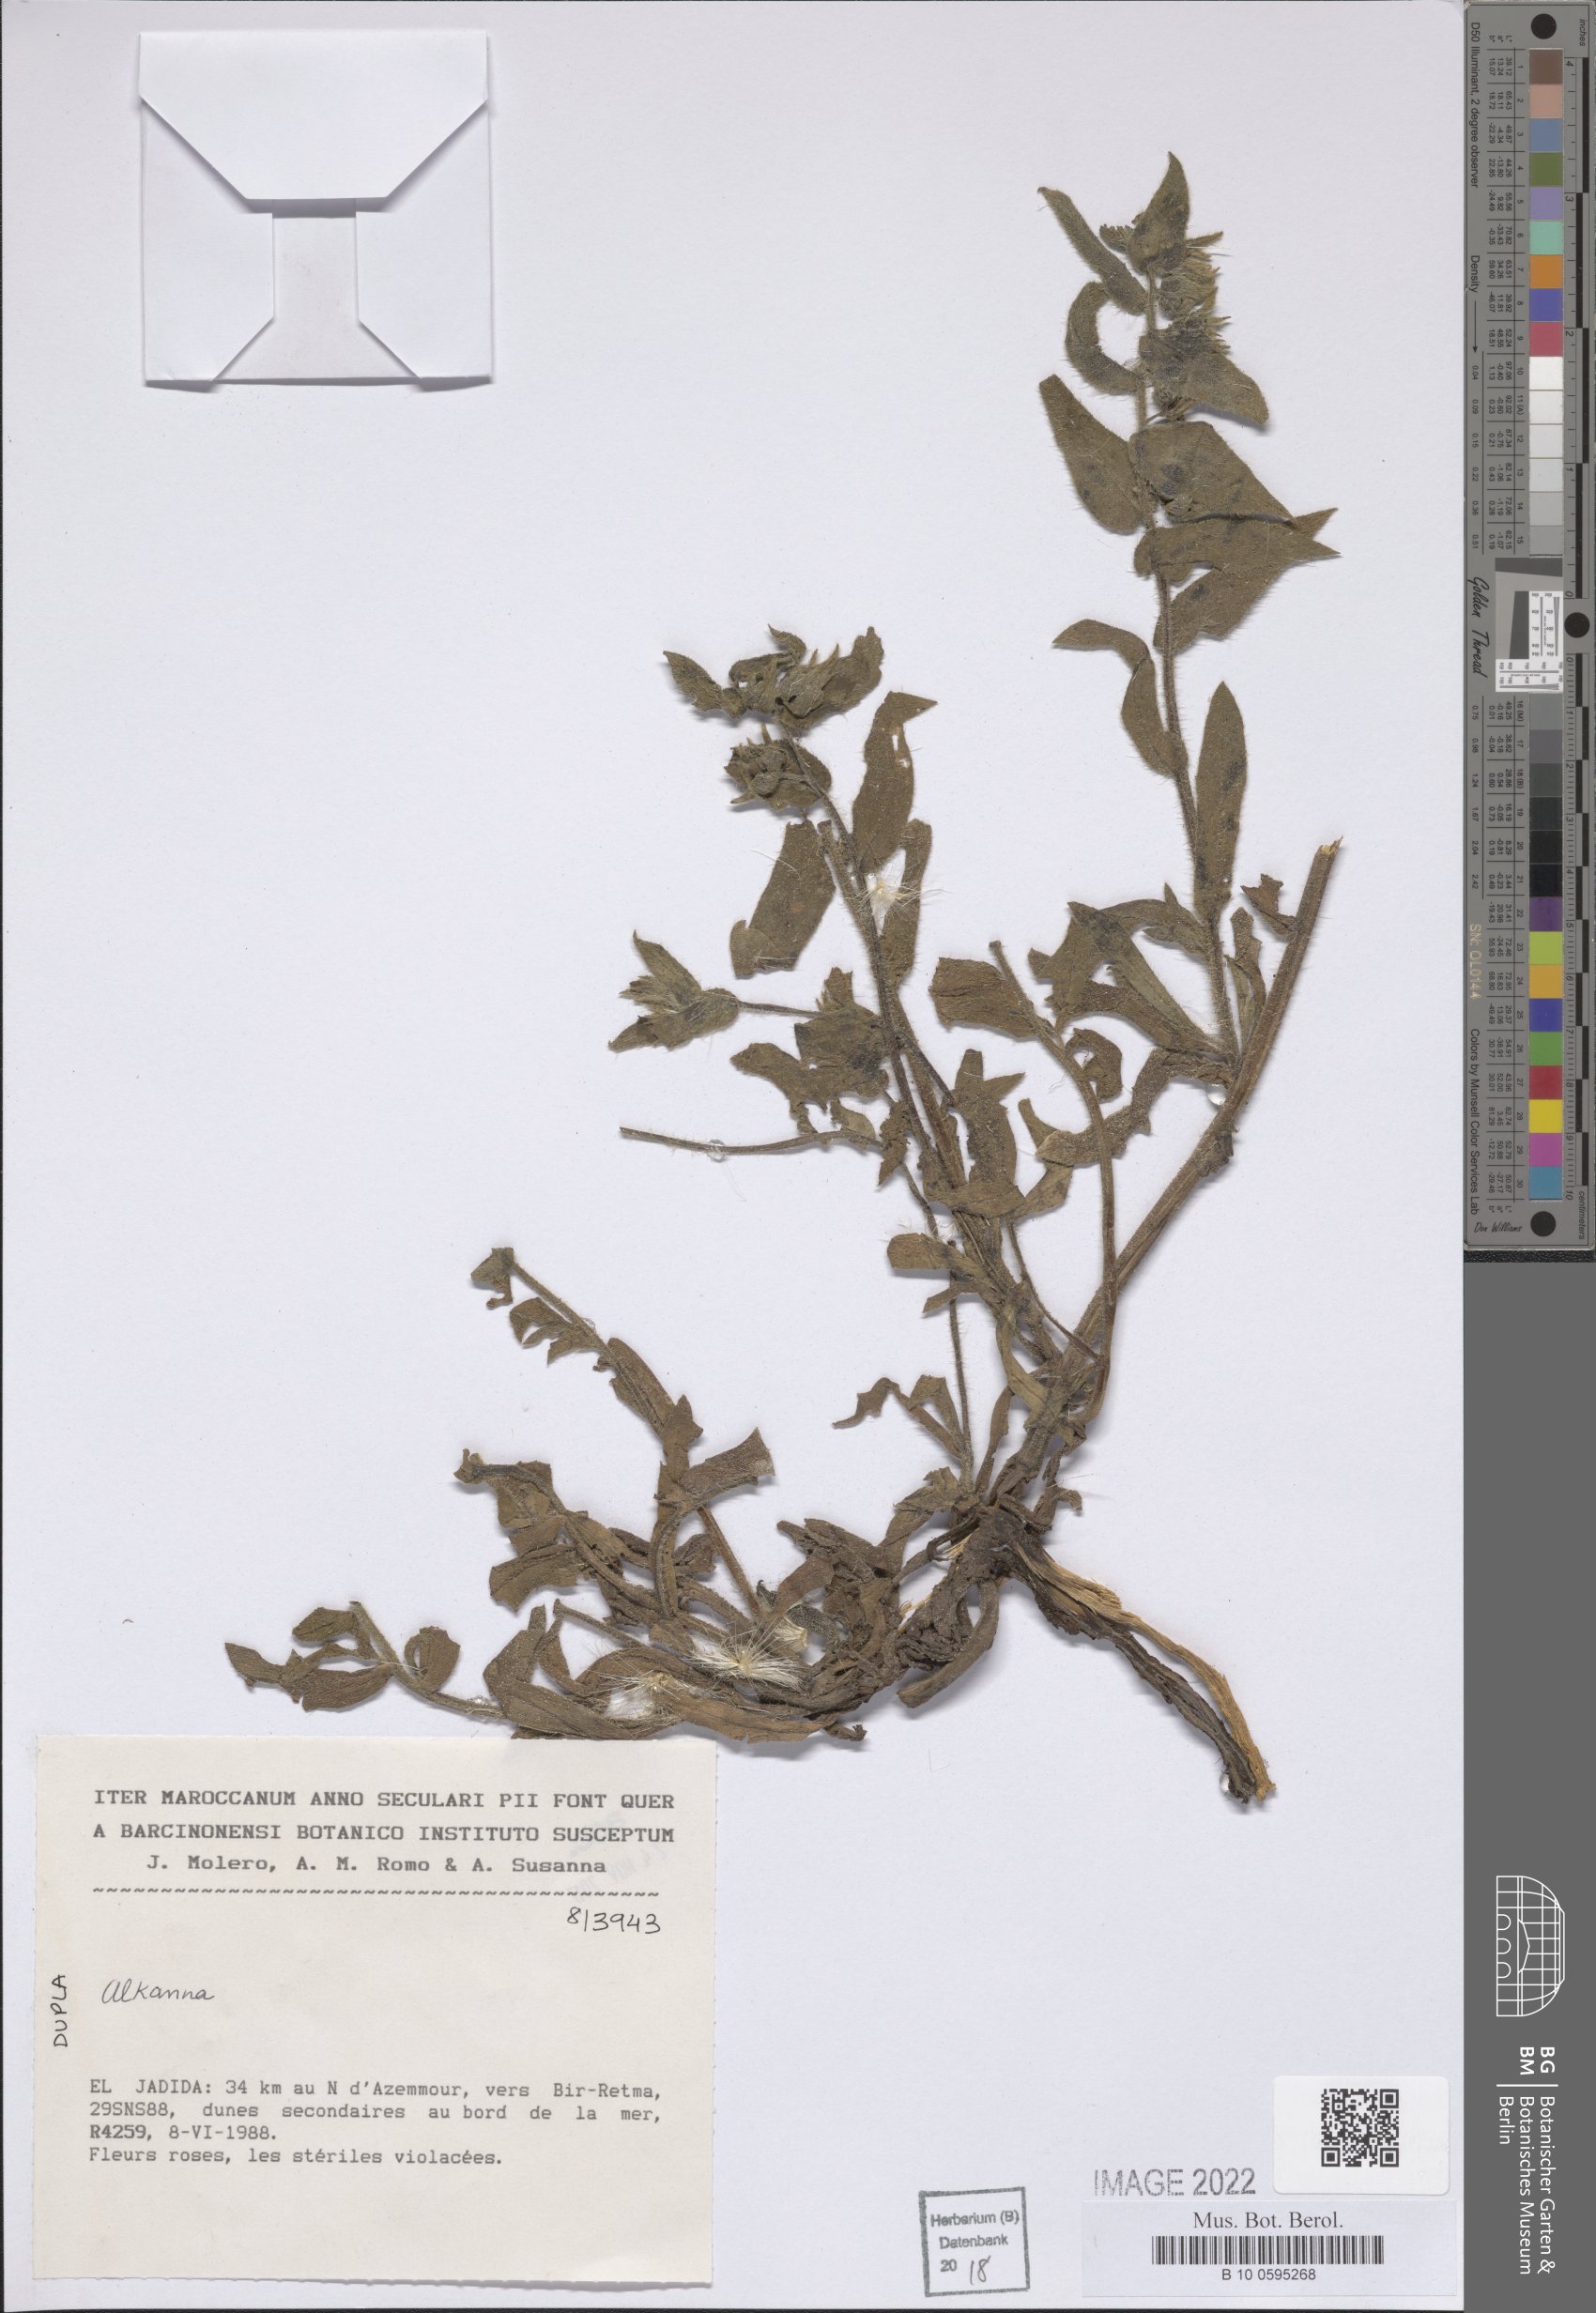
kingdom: Plantae
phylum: Tracheophyta
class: Magnoliopsida
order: Boraginales
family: Boraginaceae
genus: Alkanna
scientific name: Alkanna
